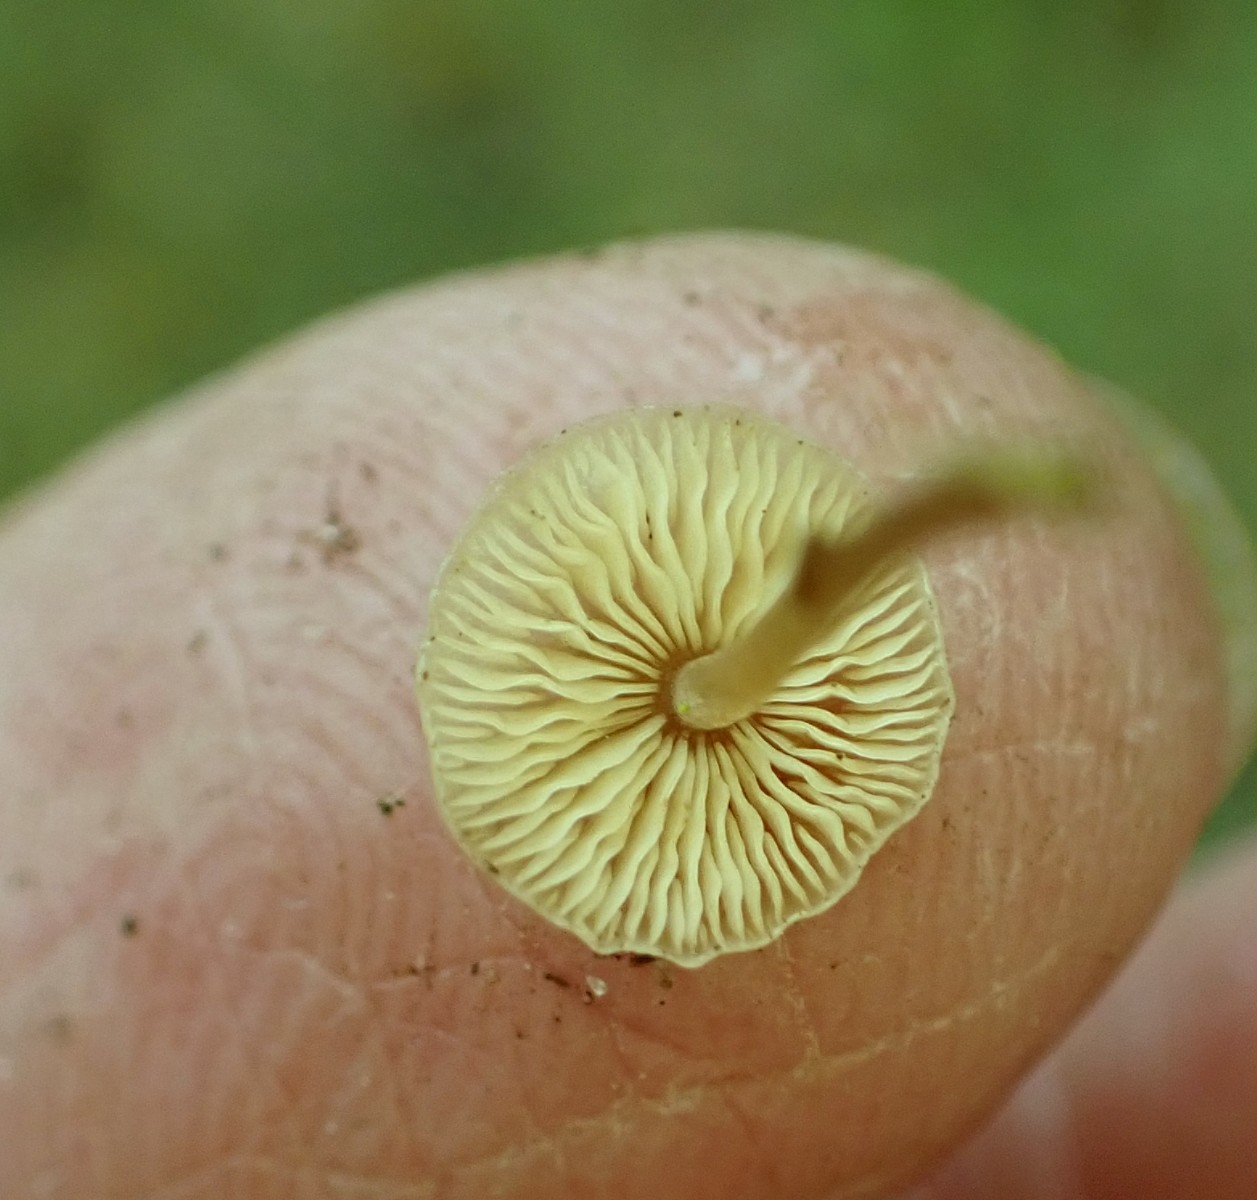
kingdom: Fungi
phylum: Basidiomycota
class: Agaricomycetes
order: Agaricales
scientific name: Agaricales
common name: champignonordenen
